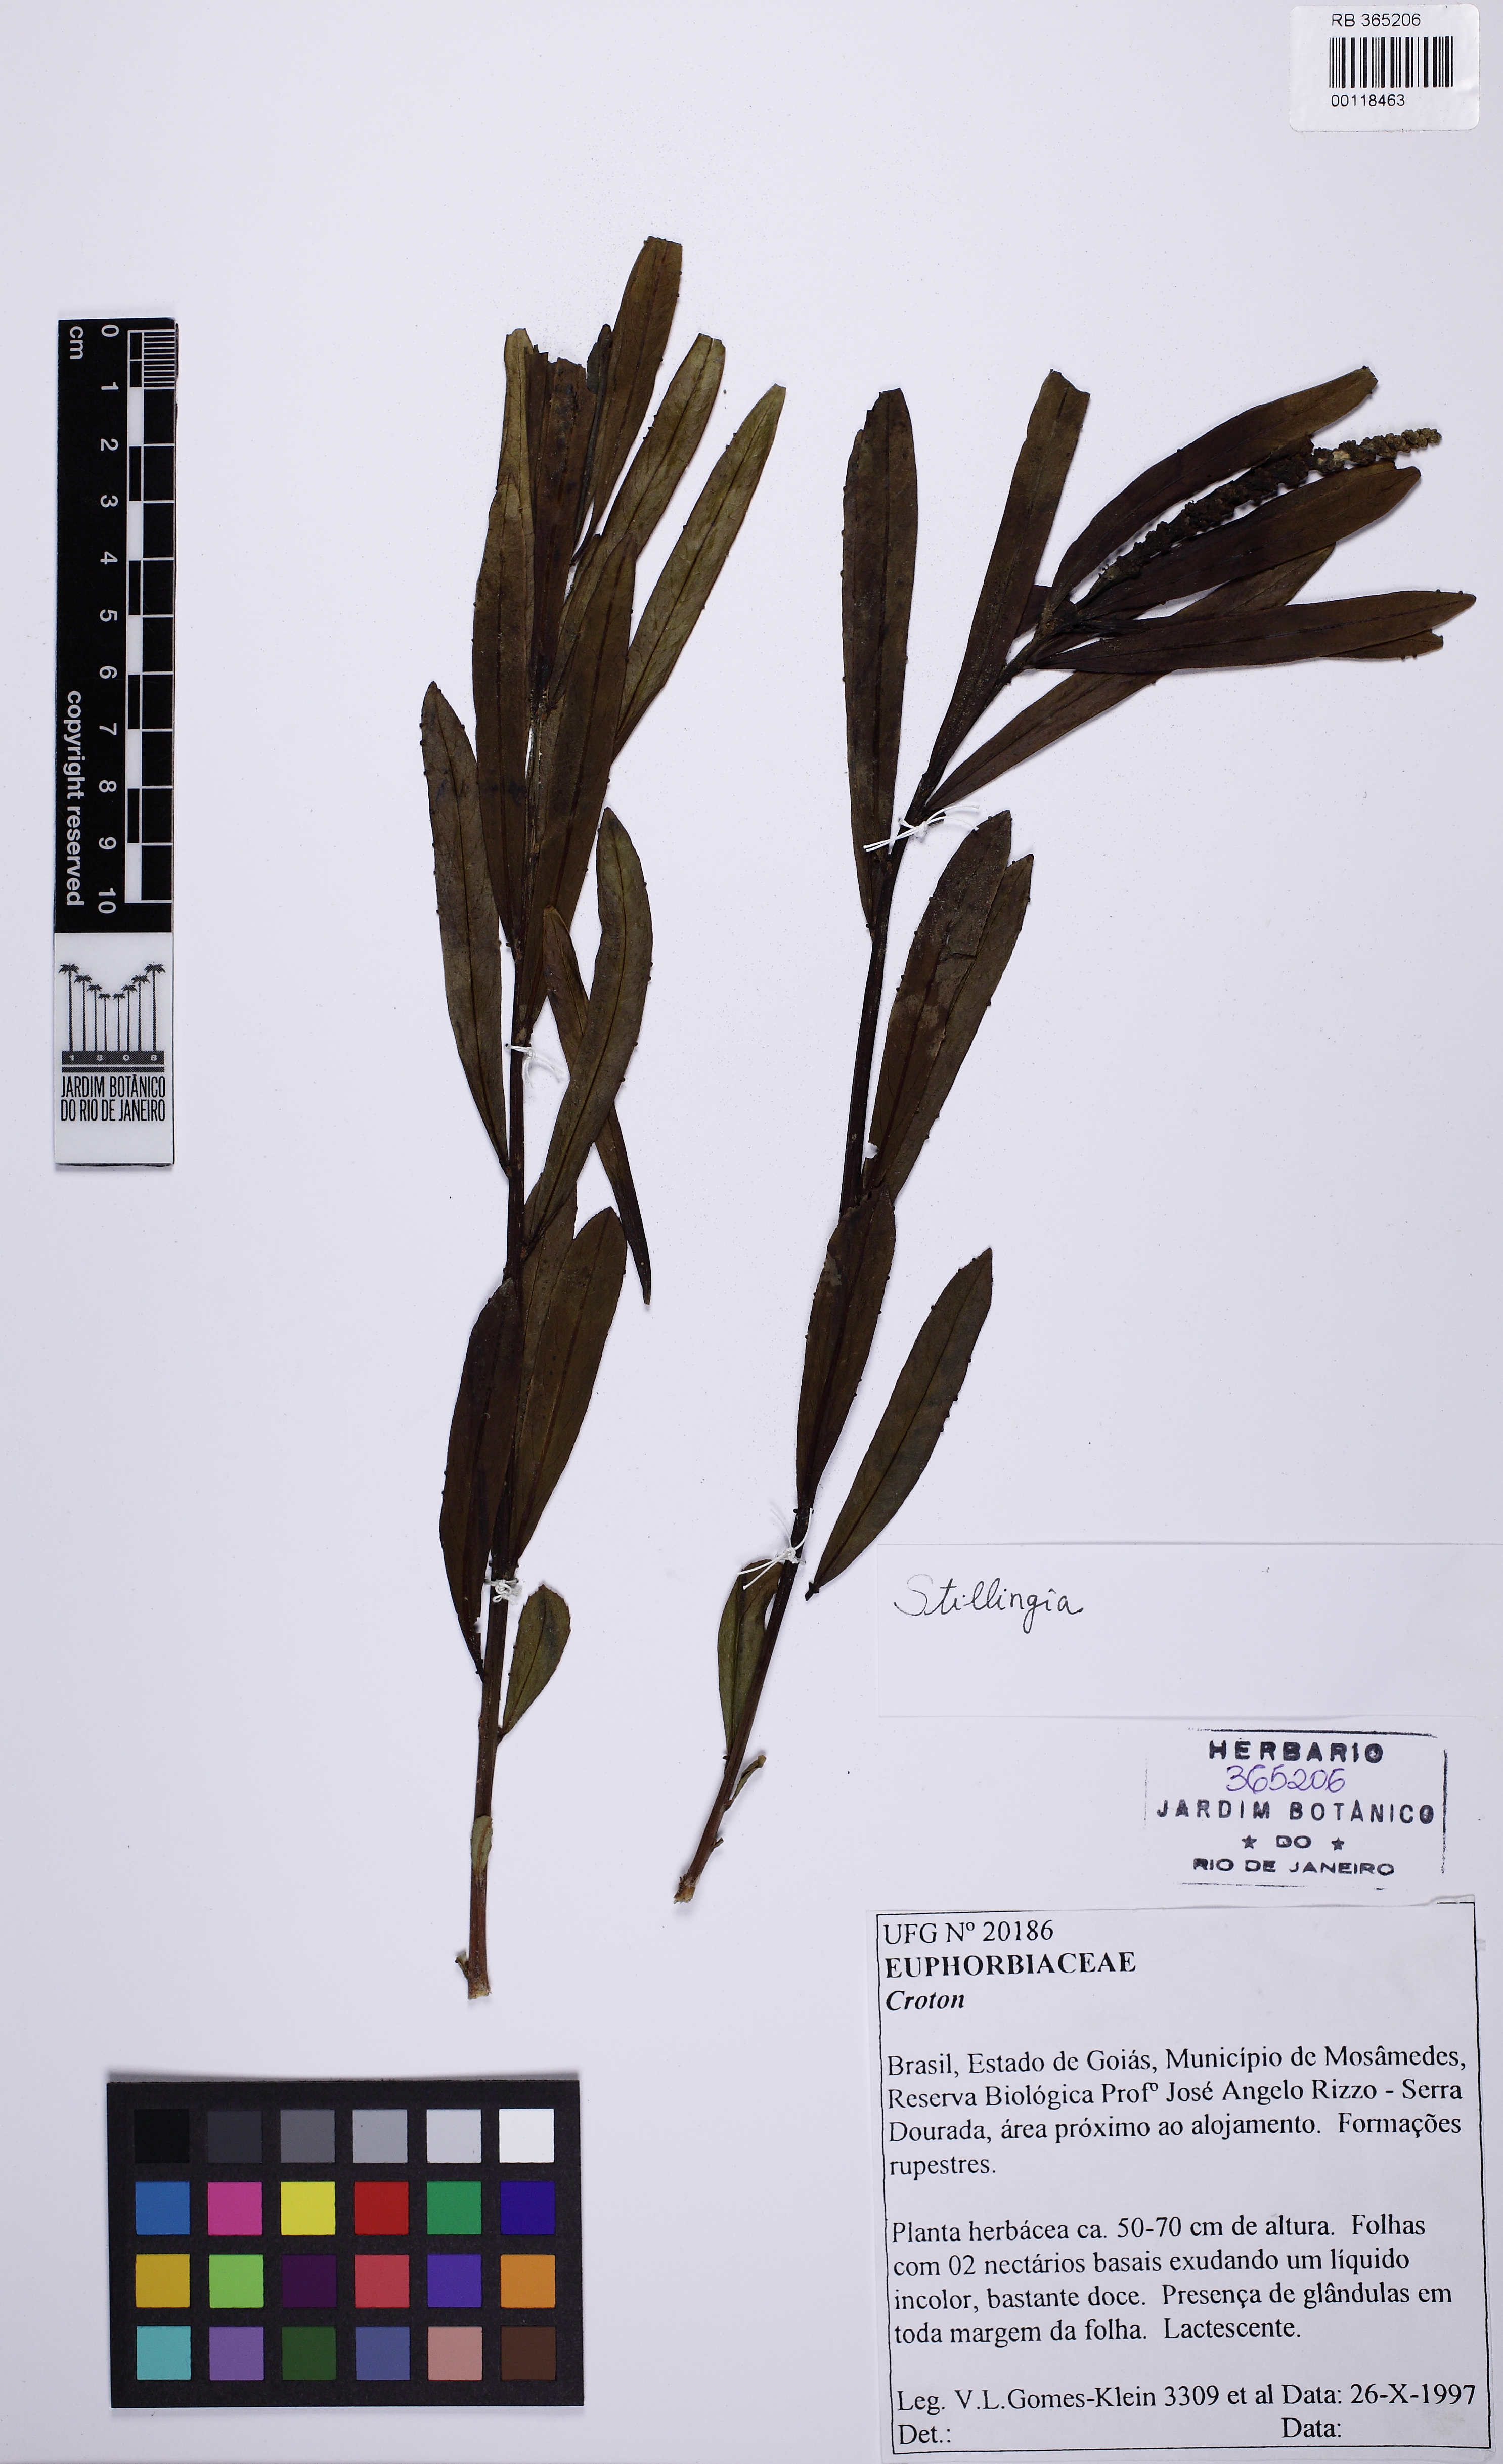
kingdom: Plantae
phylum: Tracheophyta
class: Magnoliopsida
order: Malpighiales
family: Euphorbiaceae
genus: Croton
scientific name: Croton
